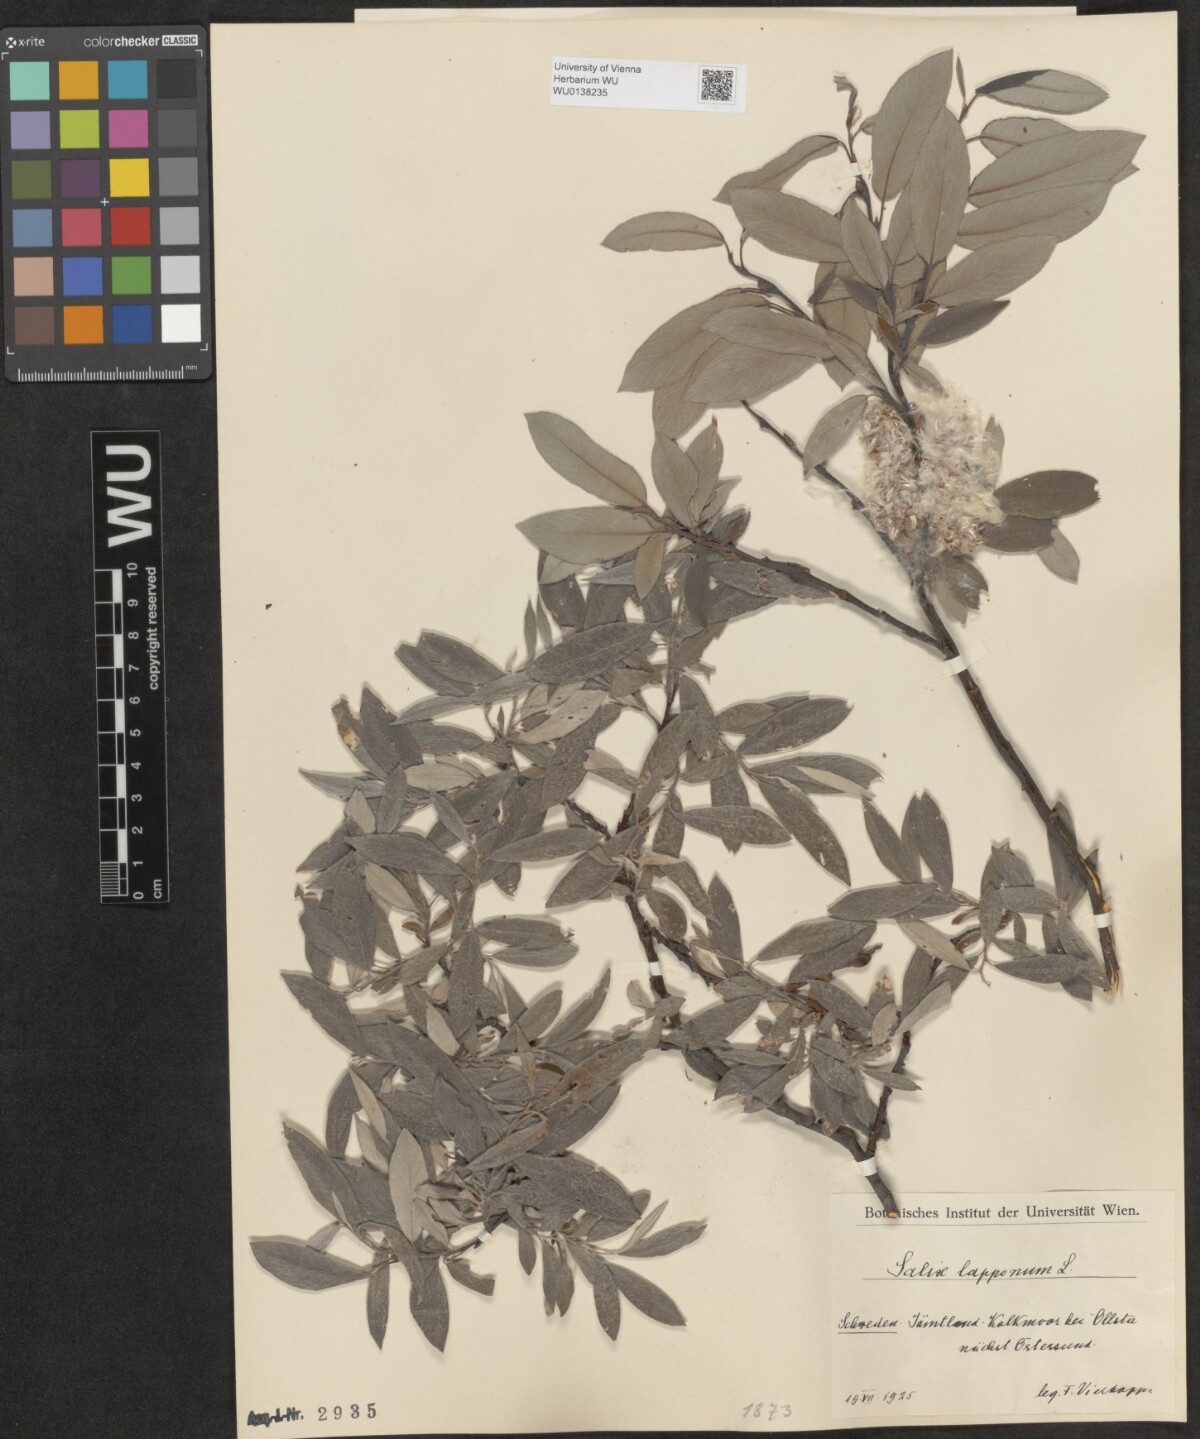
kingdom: Plantae
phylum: Tracheophyta
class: Magnoliopsida
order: Malpighiales
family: Salicaceae
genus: Salix
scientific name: Salix lapponum
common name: Downy willow
